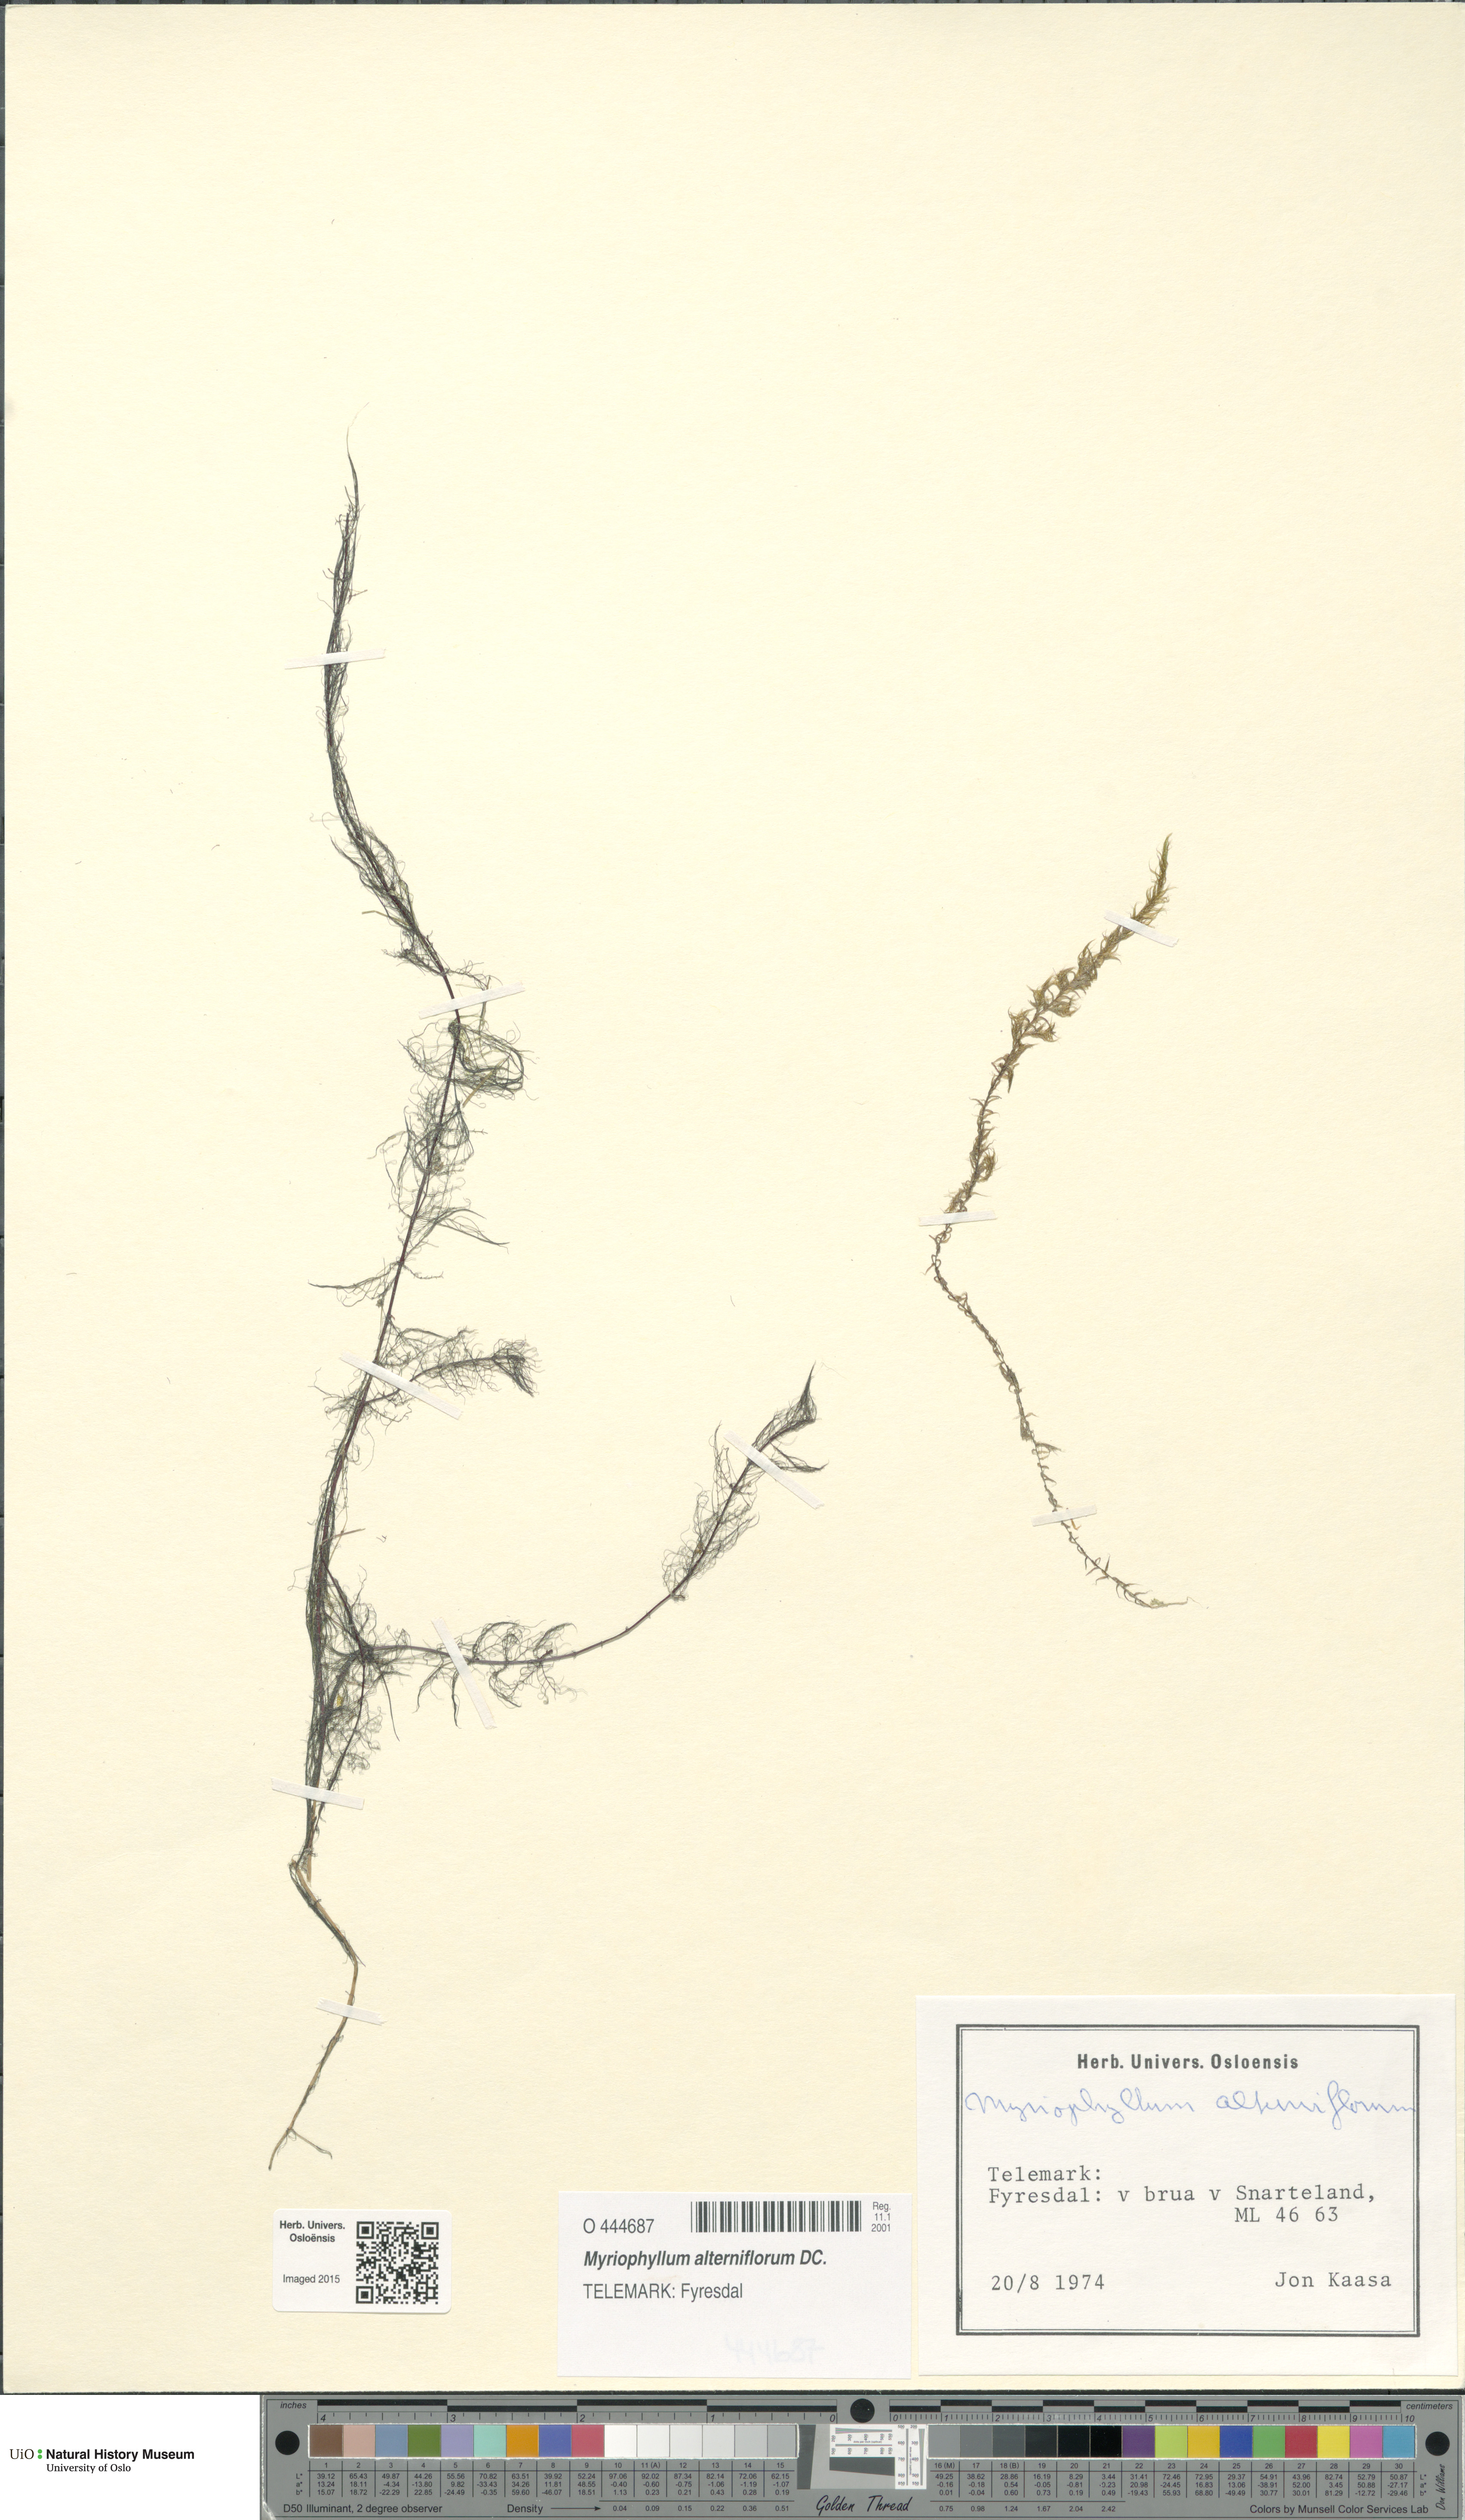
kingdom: Plantae
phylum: Tracheophyta
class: Magnoliopsida
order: Saxifragales
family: Haloragaceae
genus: Myriophyllum
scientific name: Myriophyllum alterniflorum
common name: Alternate water-milfoil
